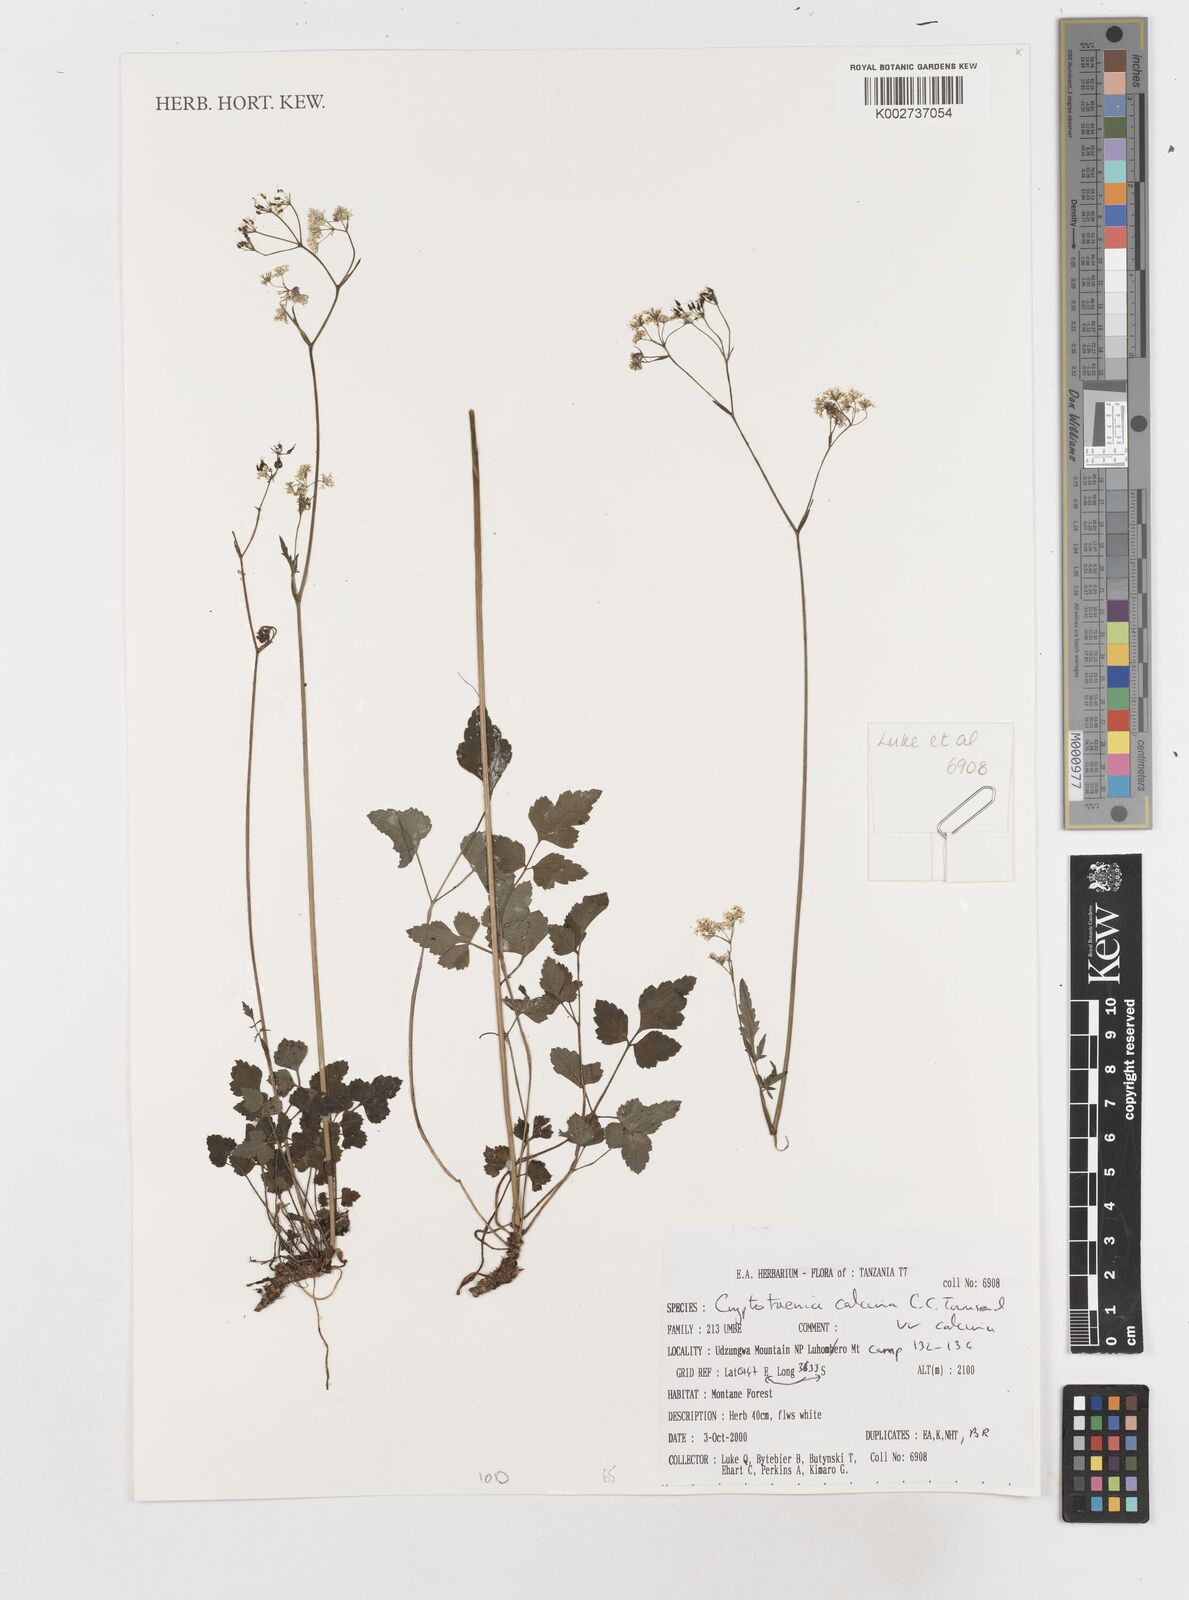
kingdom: Plantae
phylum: Tracheophyta
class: Magnoliopsida
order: Apiales
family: Apiaceae
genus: Cryptotaenia
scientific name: Cryptotaenia calycina
